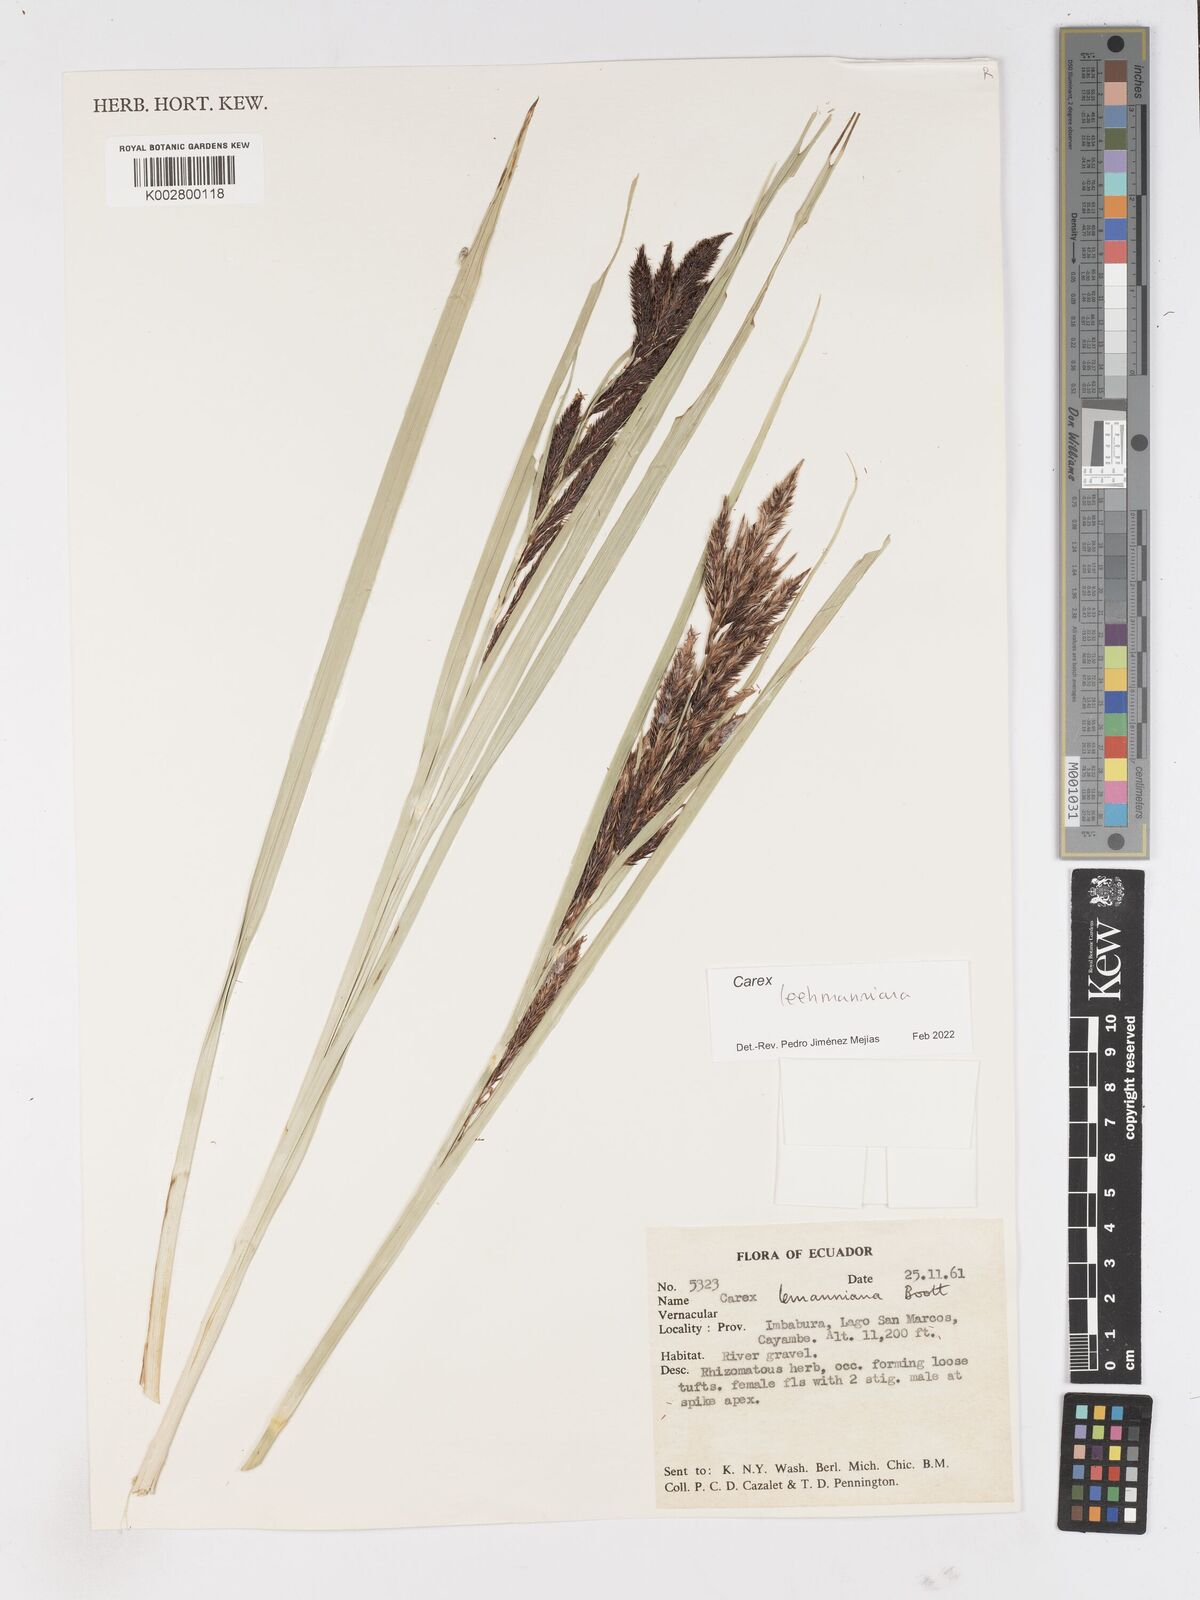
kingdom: Plantae
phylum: Tracheophyta
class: Liliopsida
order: Poales
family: Cyperaceae
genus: Carex
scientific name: Carex lemanniana
